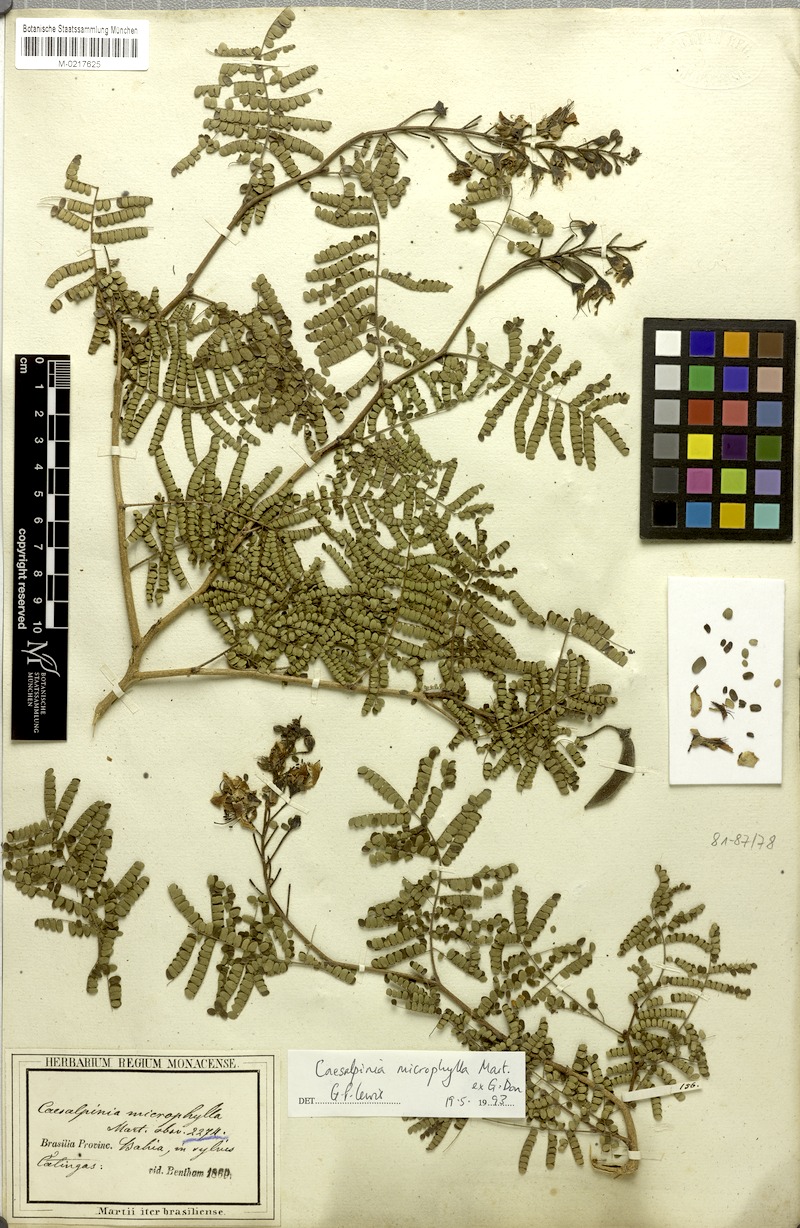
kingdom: Plantae
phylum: Tracheophyta
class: Magnoliopsida
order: Fabales
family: Fabaceae
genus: Cenostigma
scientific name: Cenostigma microphyllum
